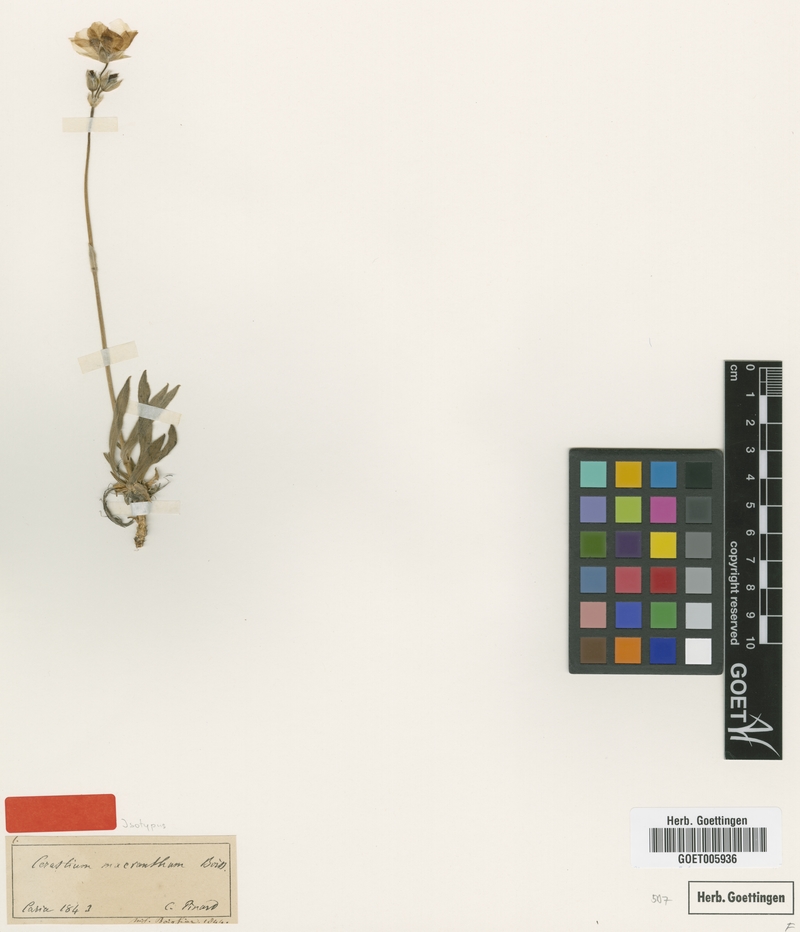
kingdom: Plantae
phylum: Tracheophyta
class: Magnoliopsida
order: Caryophyllales
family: Caryophyllaceae
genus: Cerastium
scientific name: Cerastium macranthum
